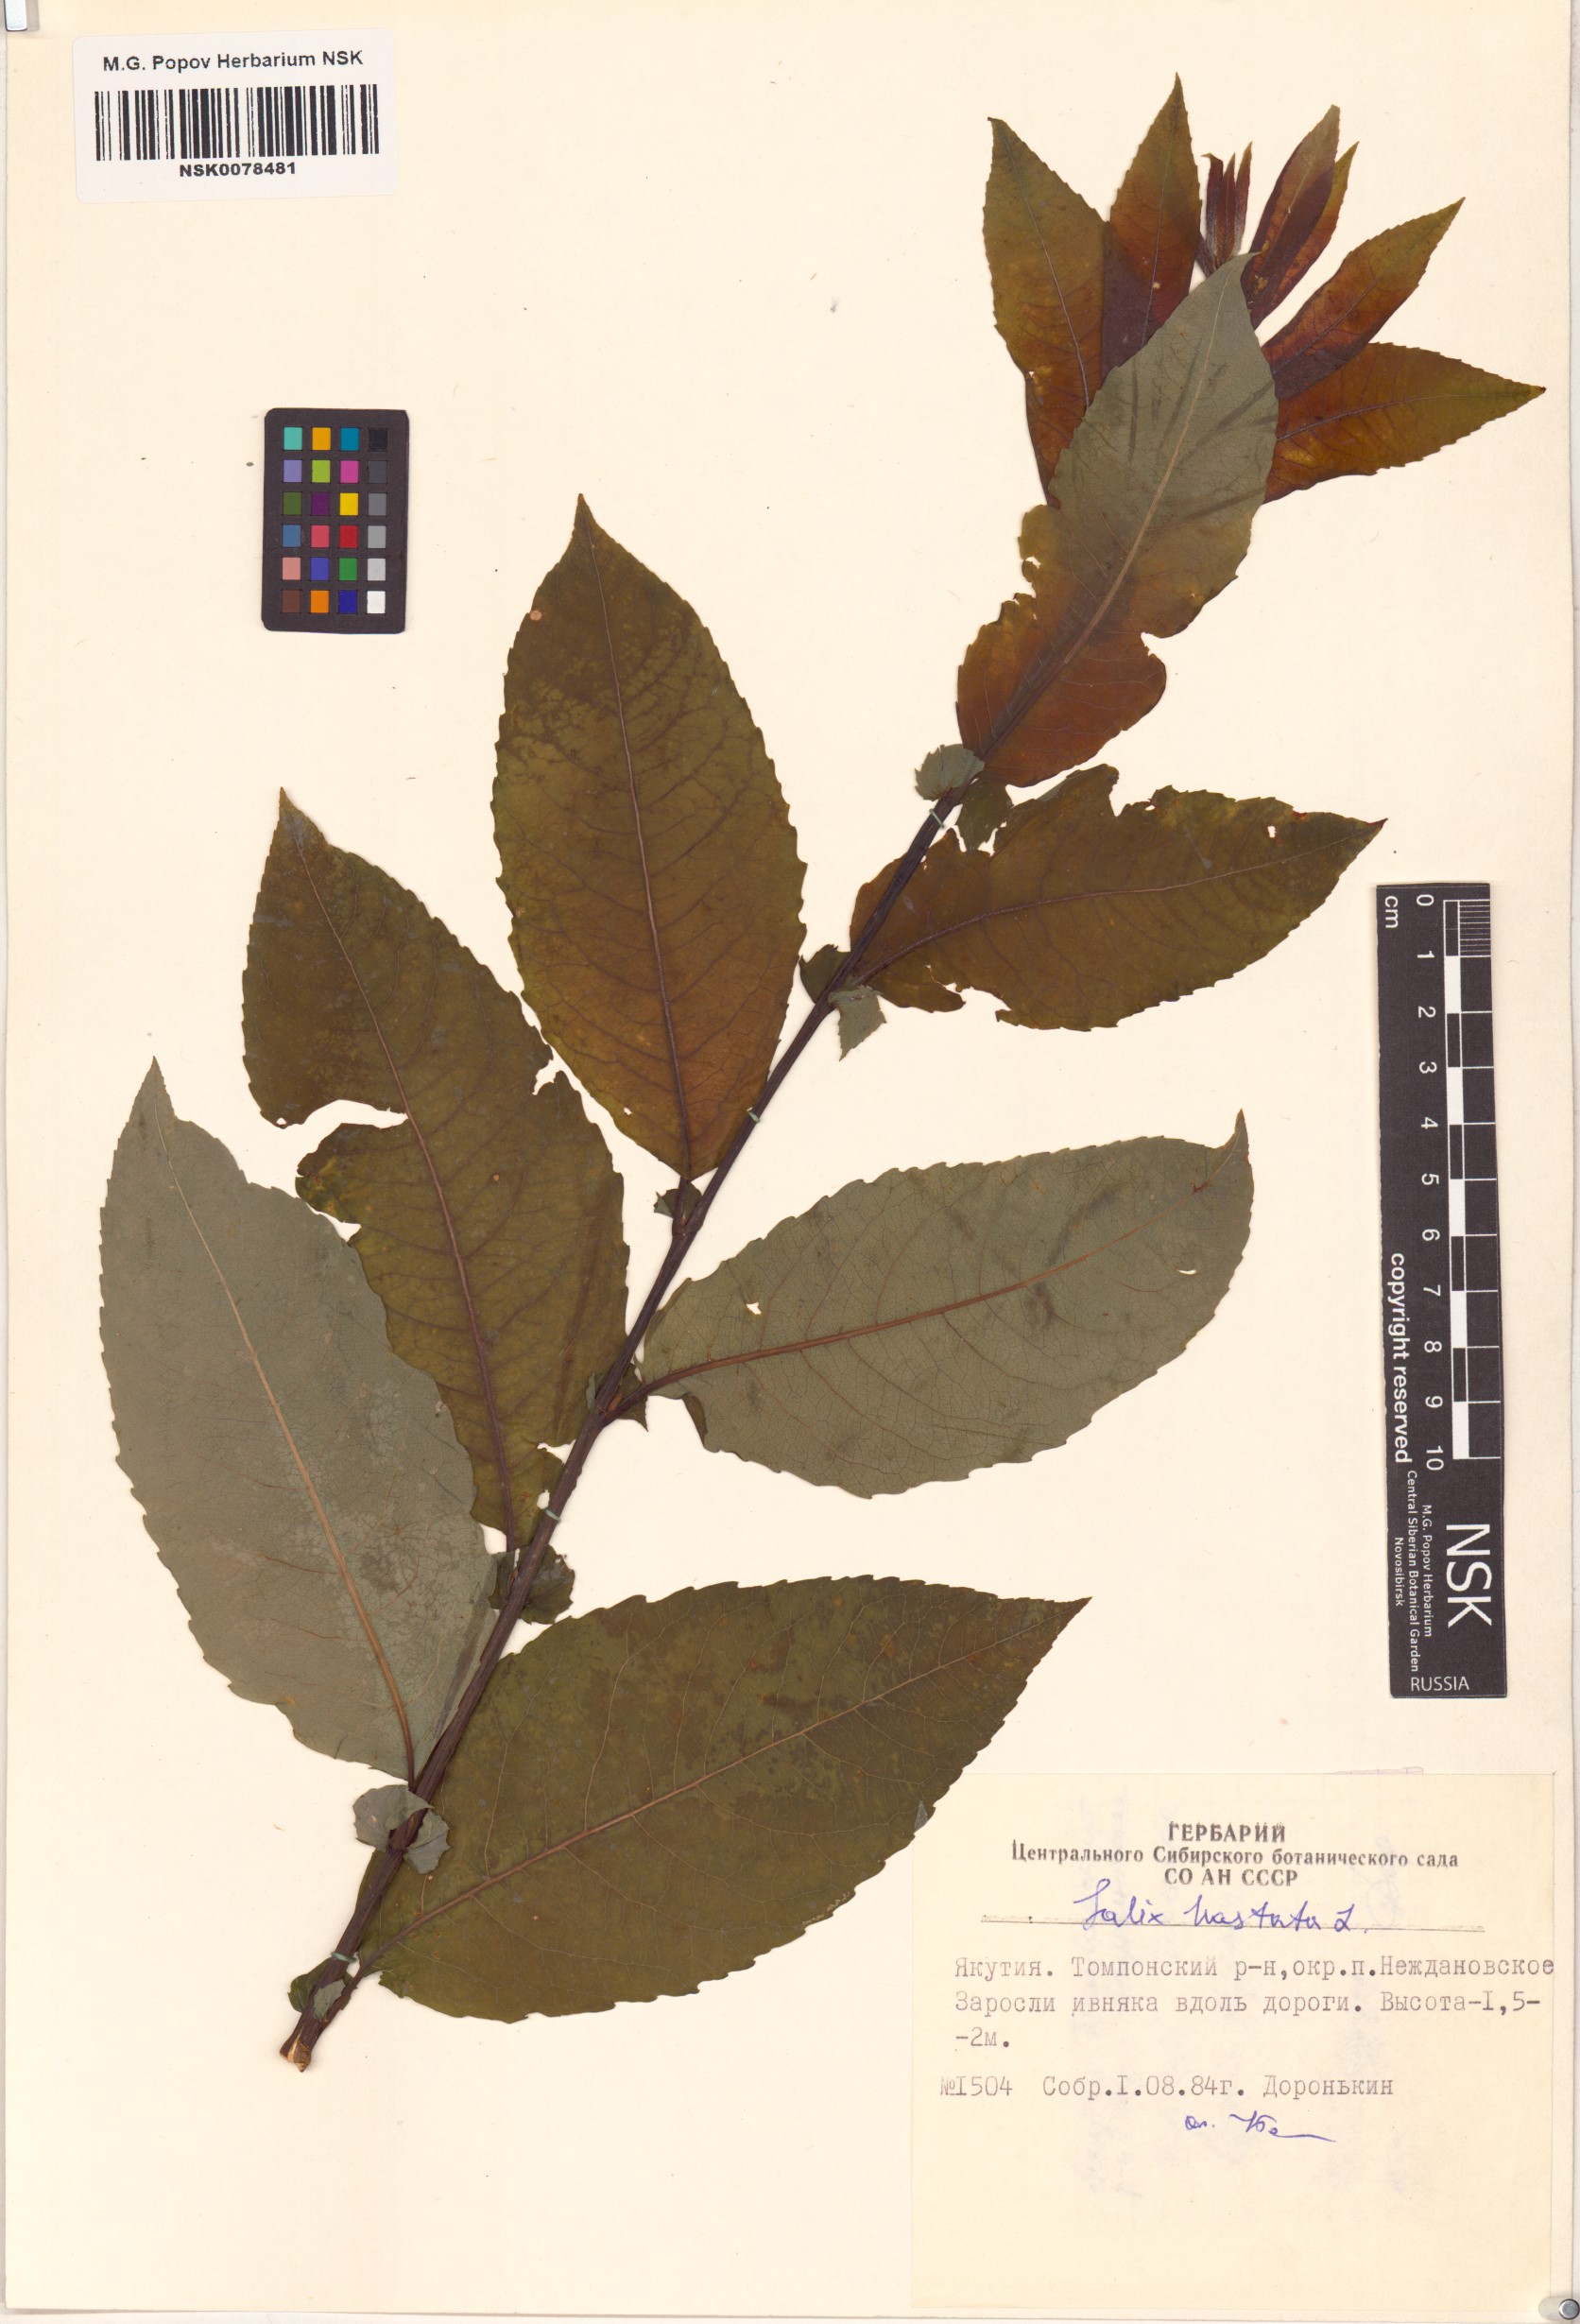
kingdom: Plantae
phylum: Tracheophyta
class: Magnoliopsida
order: Malpighiales
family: Salicaceae
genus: Salix
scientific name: Salix hastata
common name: Halberd willow
